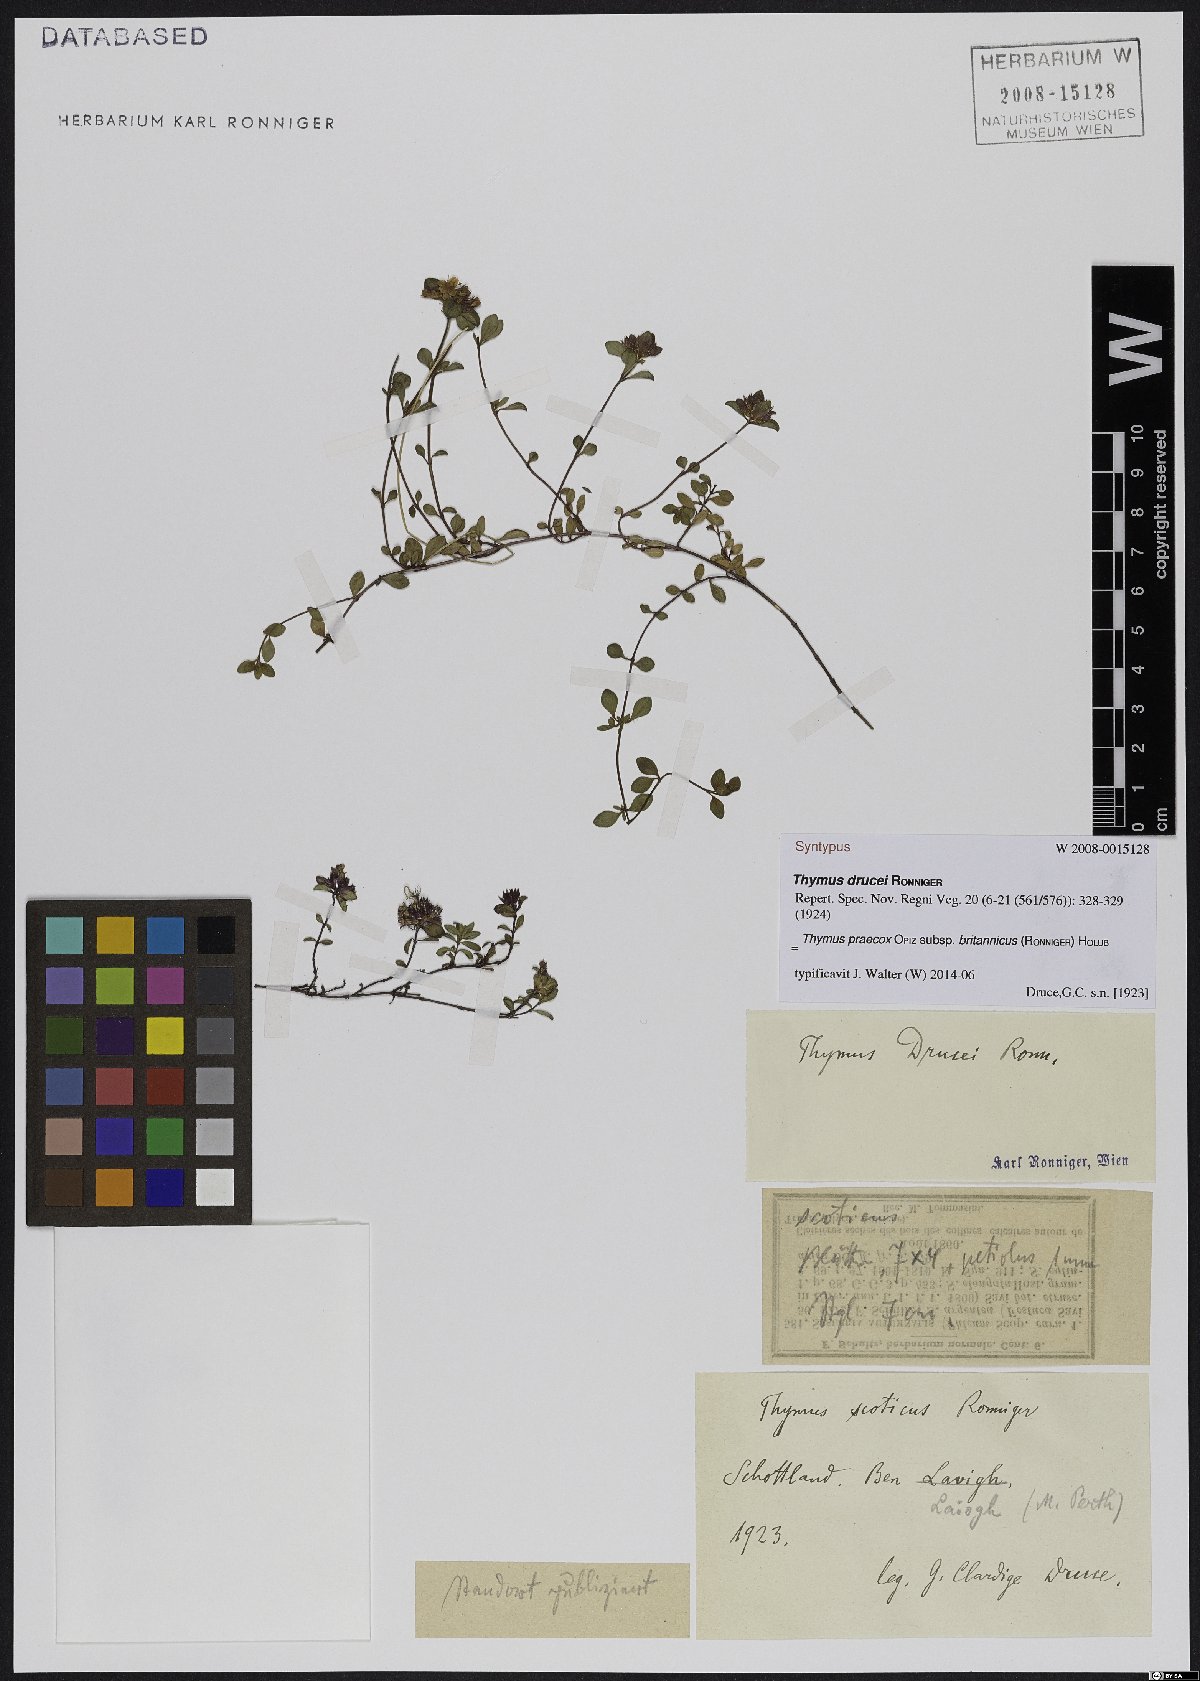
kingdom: Plantae
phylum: Tracheophyta
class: Magnoliopsida
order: Lamiales
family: Lamiaceae
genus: Thymus
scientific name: Thymus praecox
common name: Wild thyme
